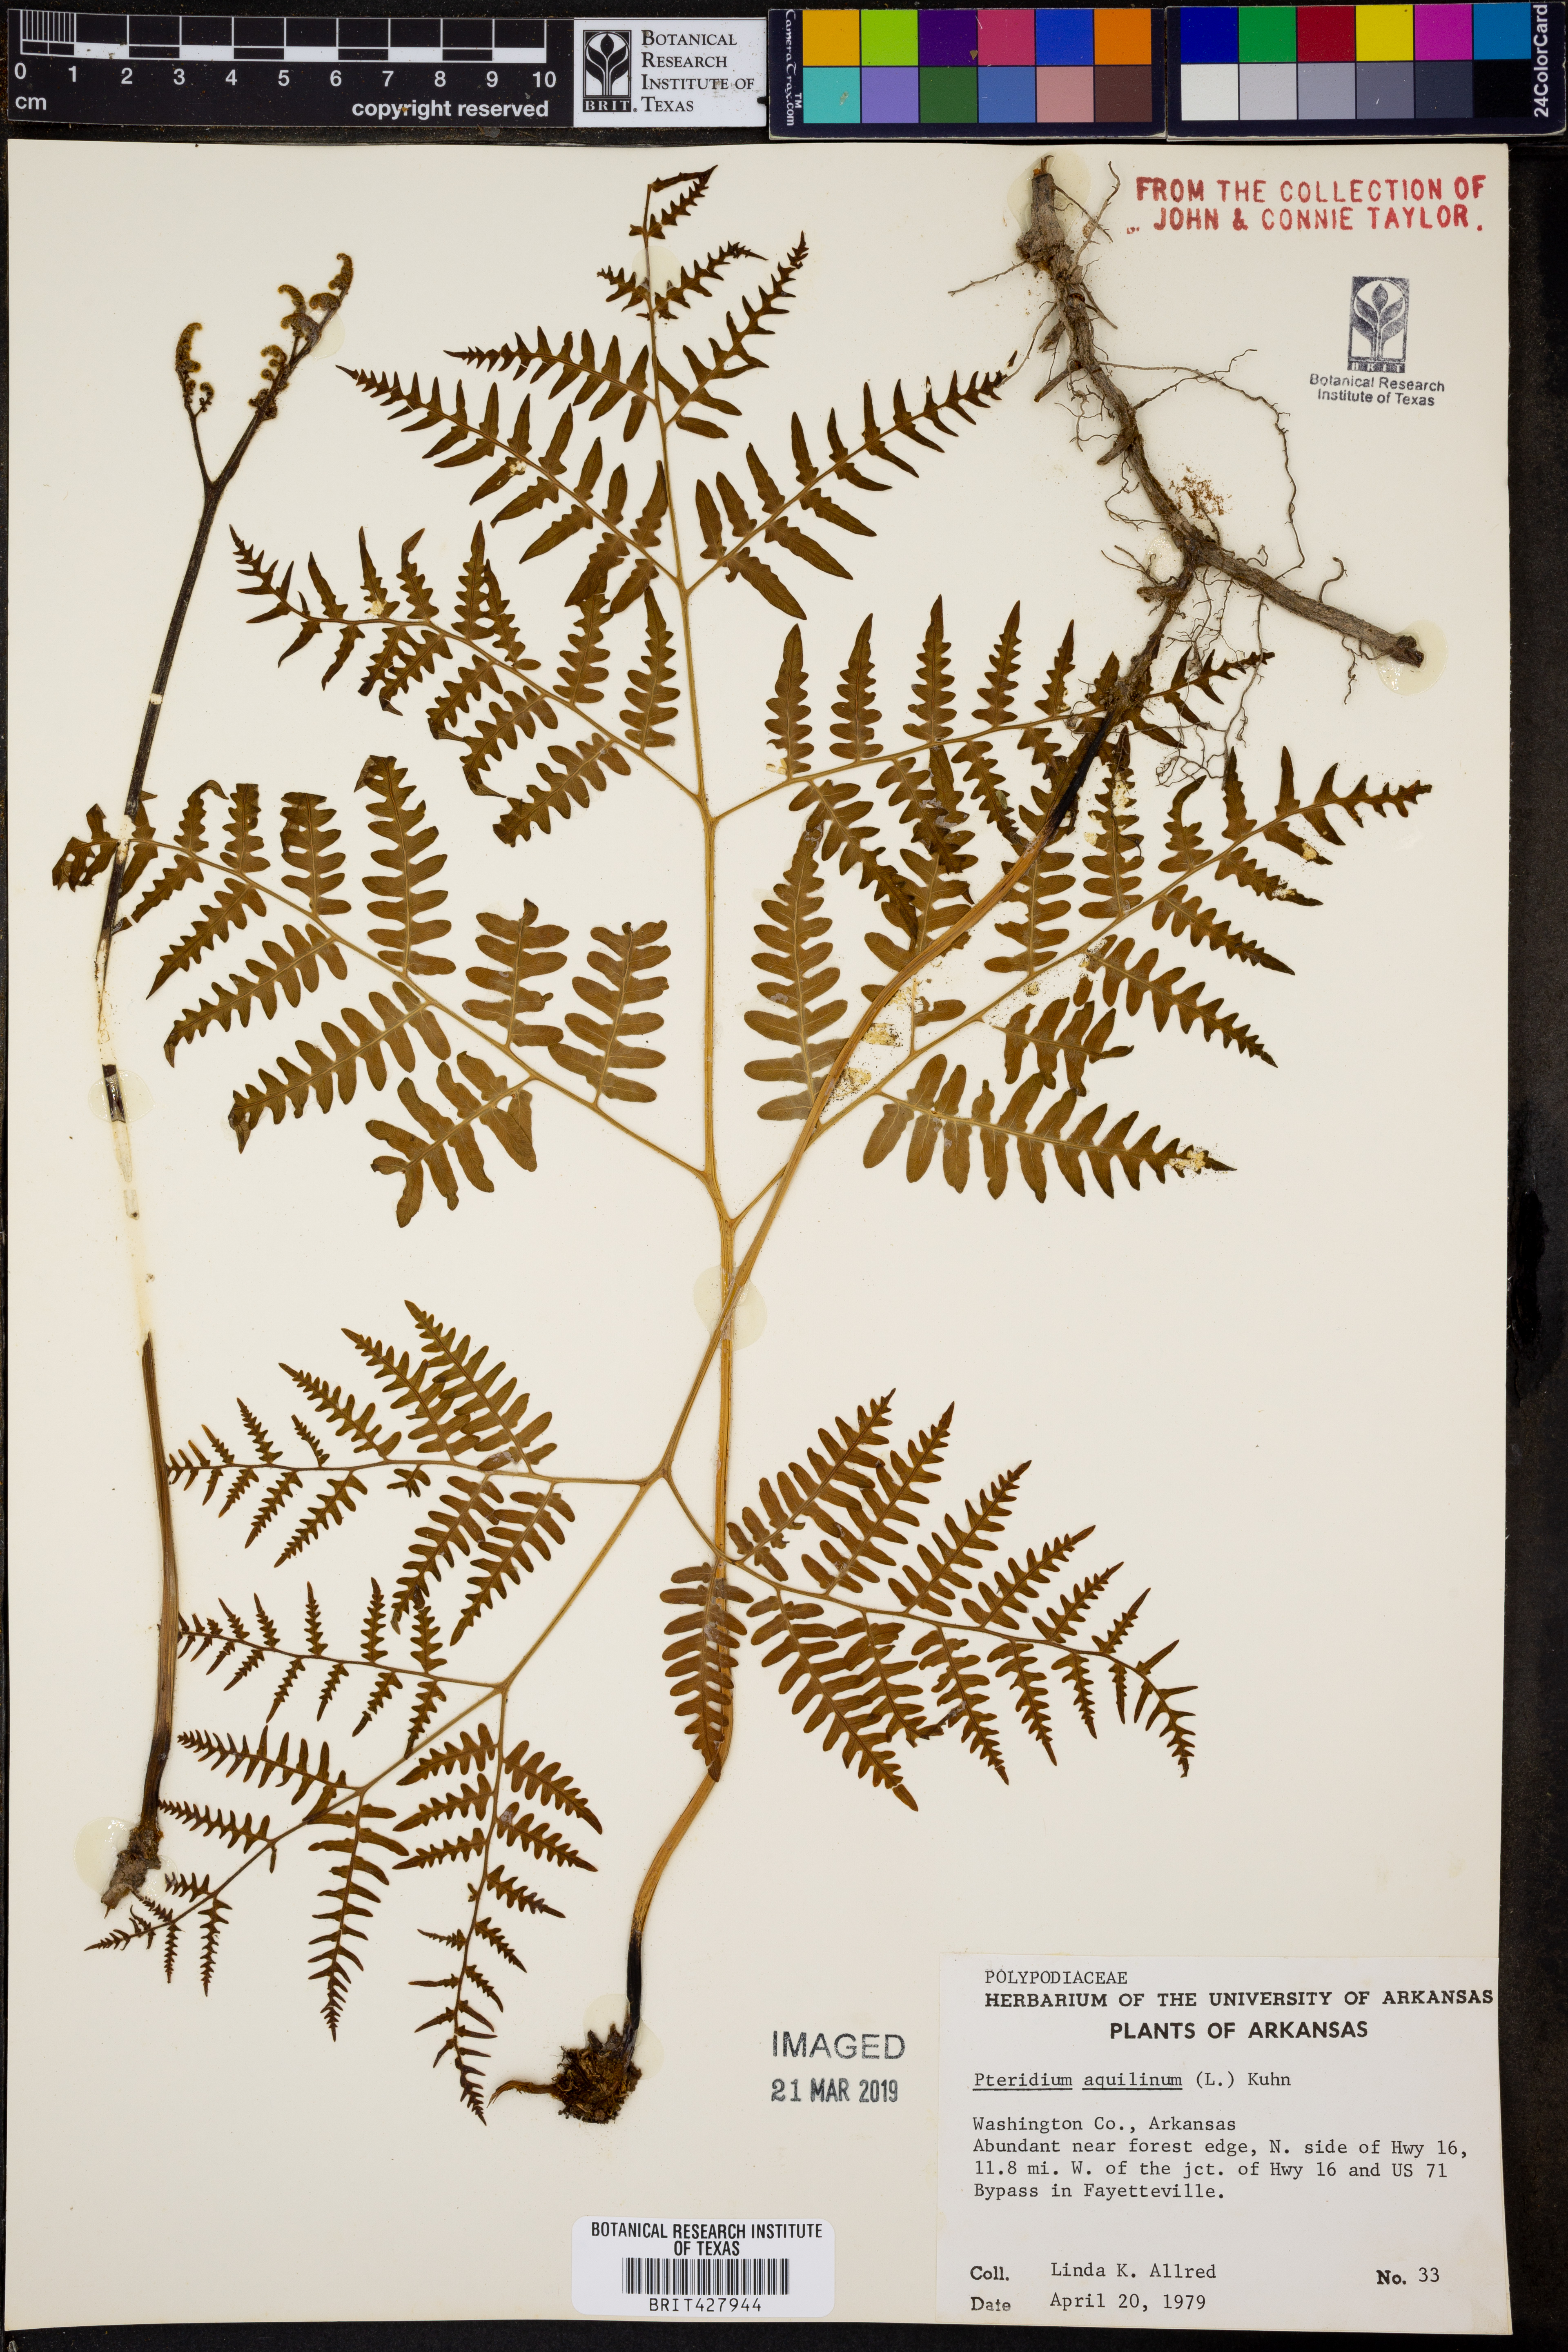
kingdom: Plantae
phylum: Tracheophyta
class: Polypodiopsida
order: Polypodiales
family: Dennstaedtiaceae
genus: Pteridium
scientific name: Pteridium aquilinum
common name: Bracken
